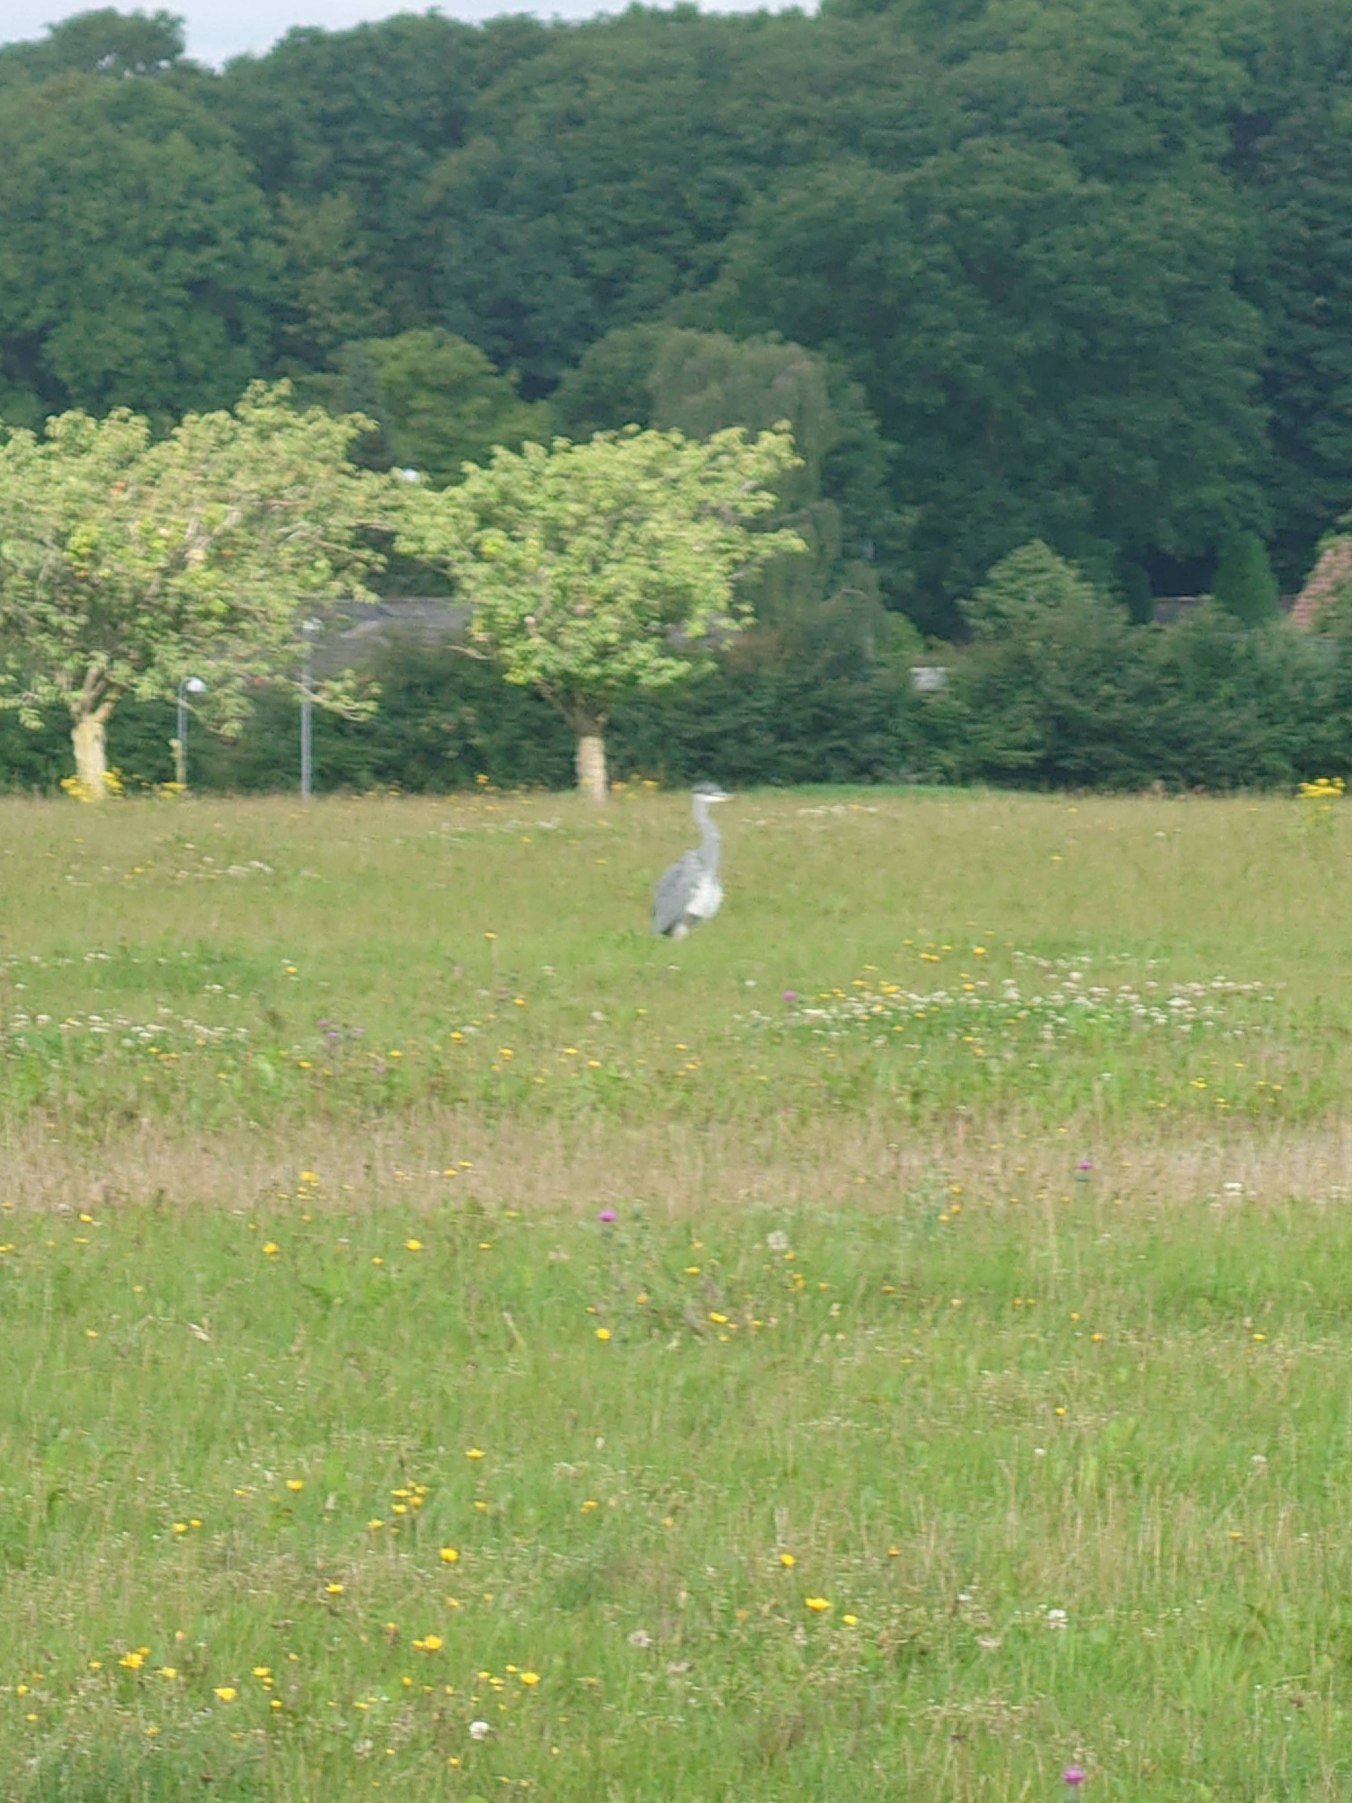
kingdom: Animalia
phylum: Chordata
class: Aves
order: Pelecaniformes
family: Ardeidae
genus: Ardea
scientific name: Ardea cinerea
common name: Fiskehejre
